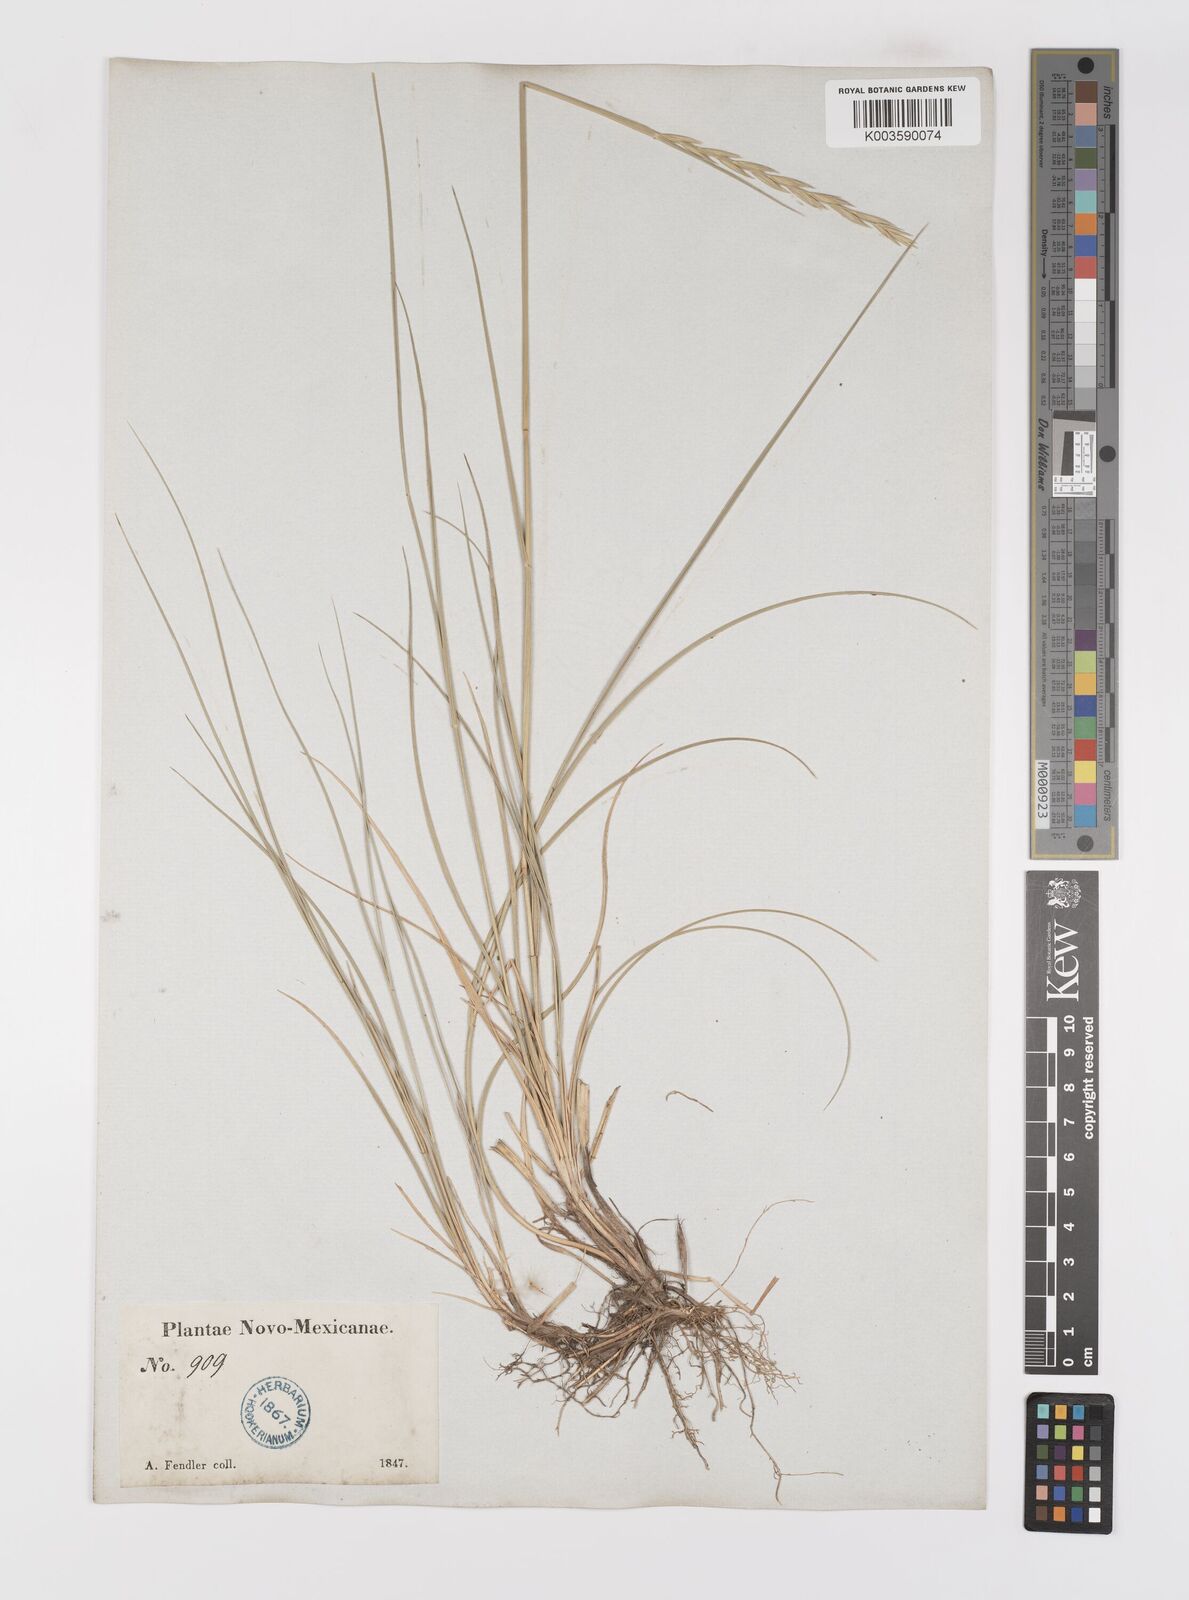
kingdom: Plantae
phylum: Tracheophyta
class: Liliopsida
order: Poales
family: Poaceae
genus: Elymus
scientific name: Elymus repens
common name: Quackgrass
